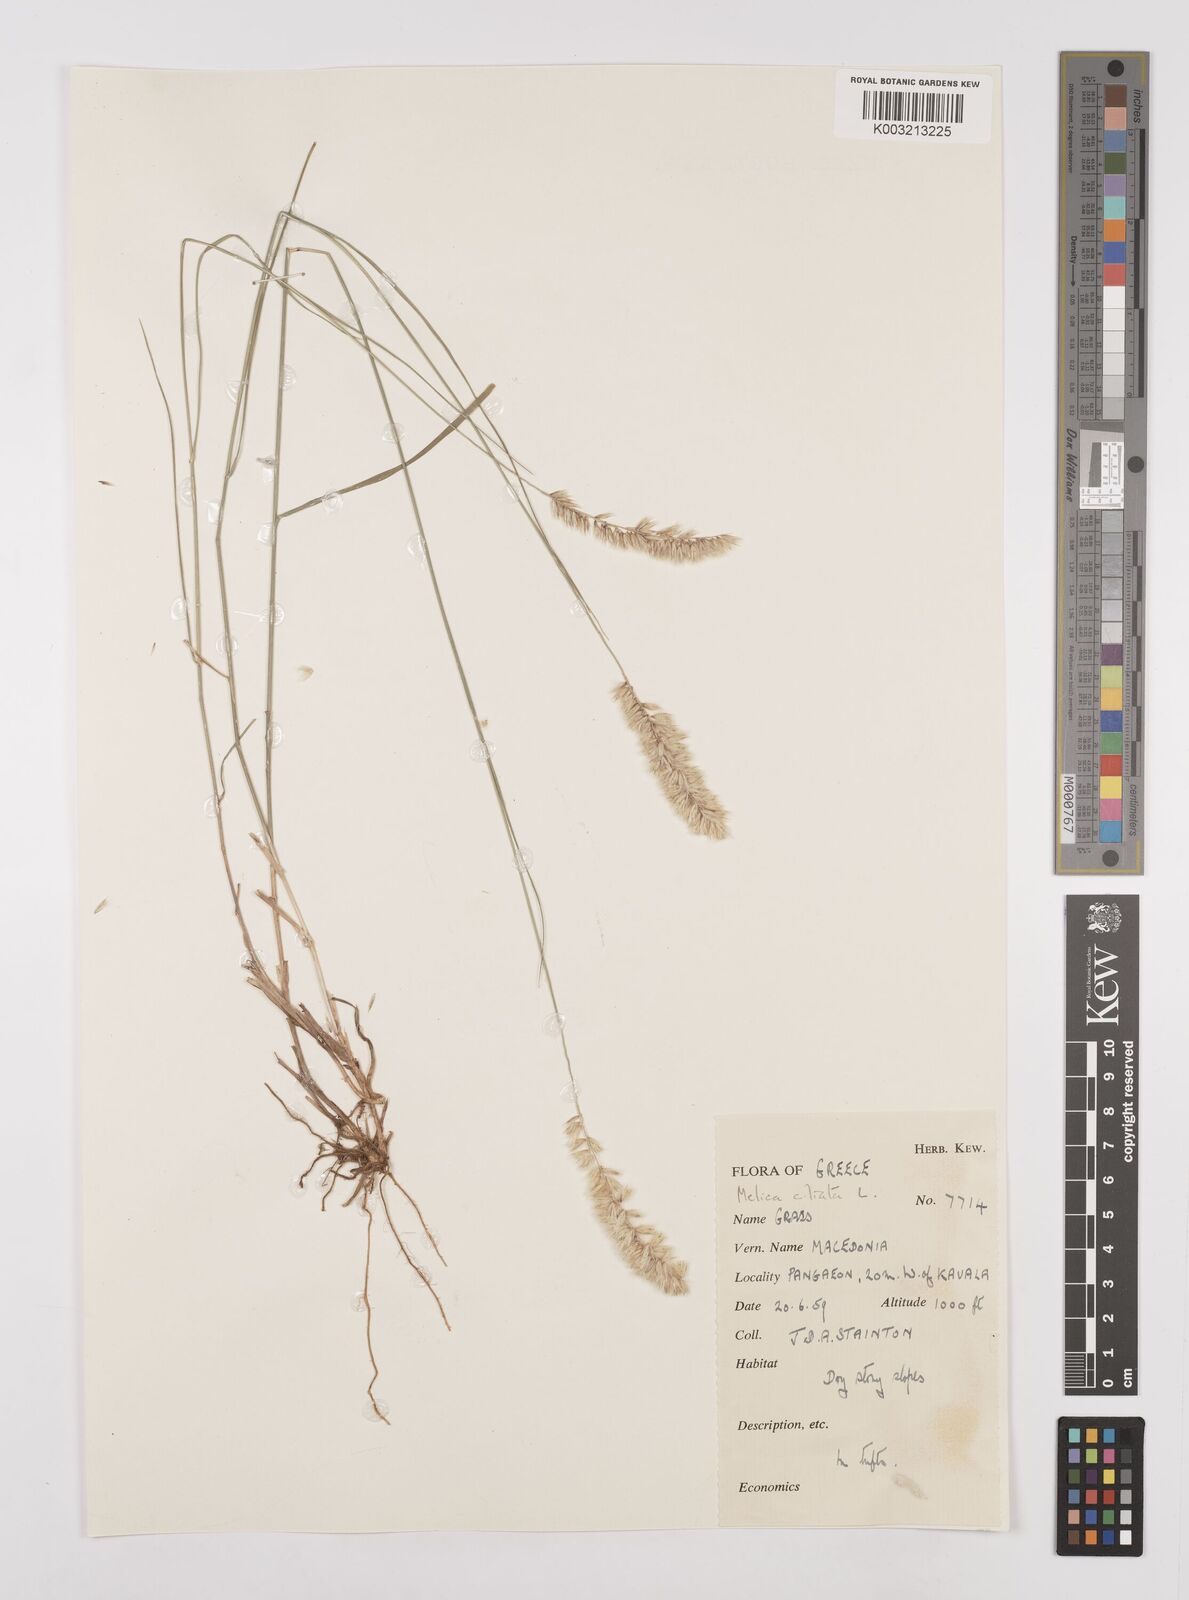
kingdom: Plantae
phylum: Tracheophyta
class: Liliopsida
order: Poales
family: Poaceae
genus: Melica
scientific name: Melica ciliata
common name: Hairy melicgrass
